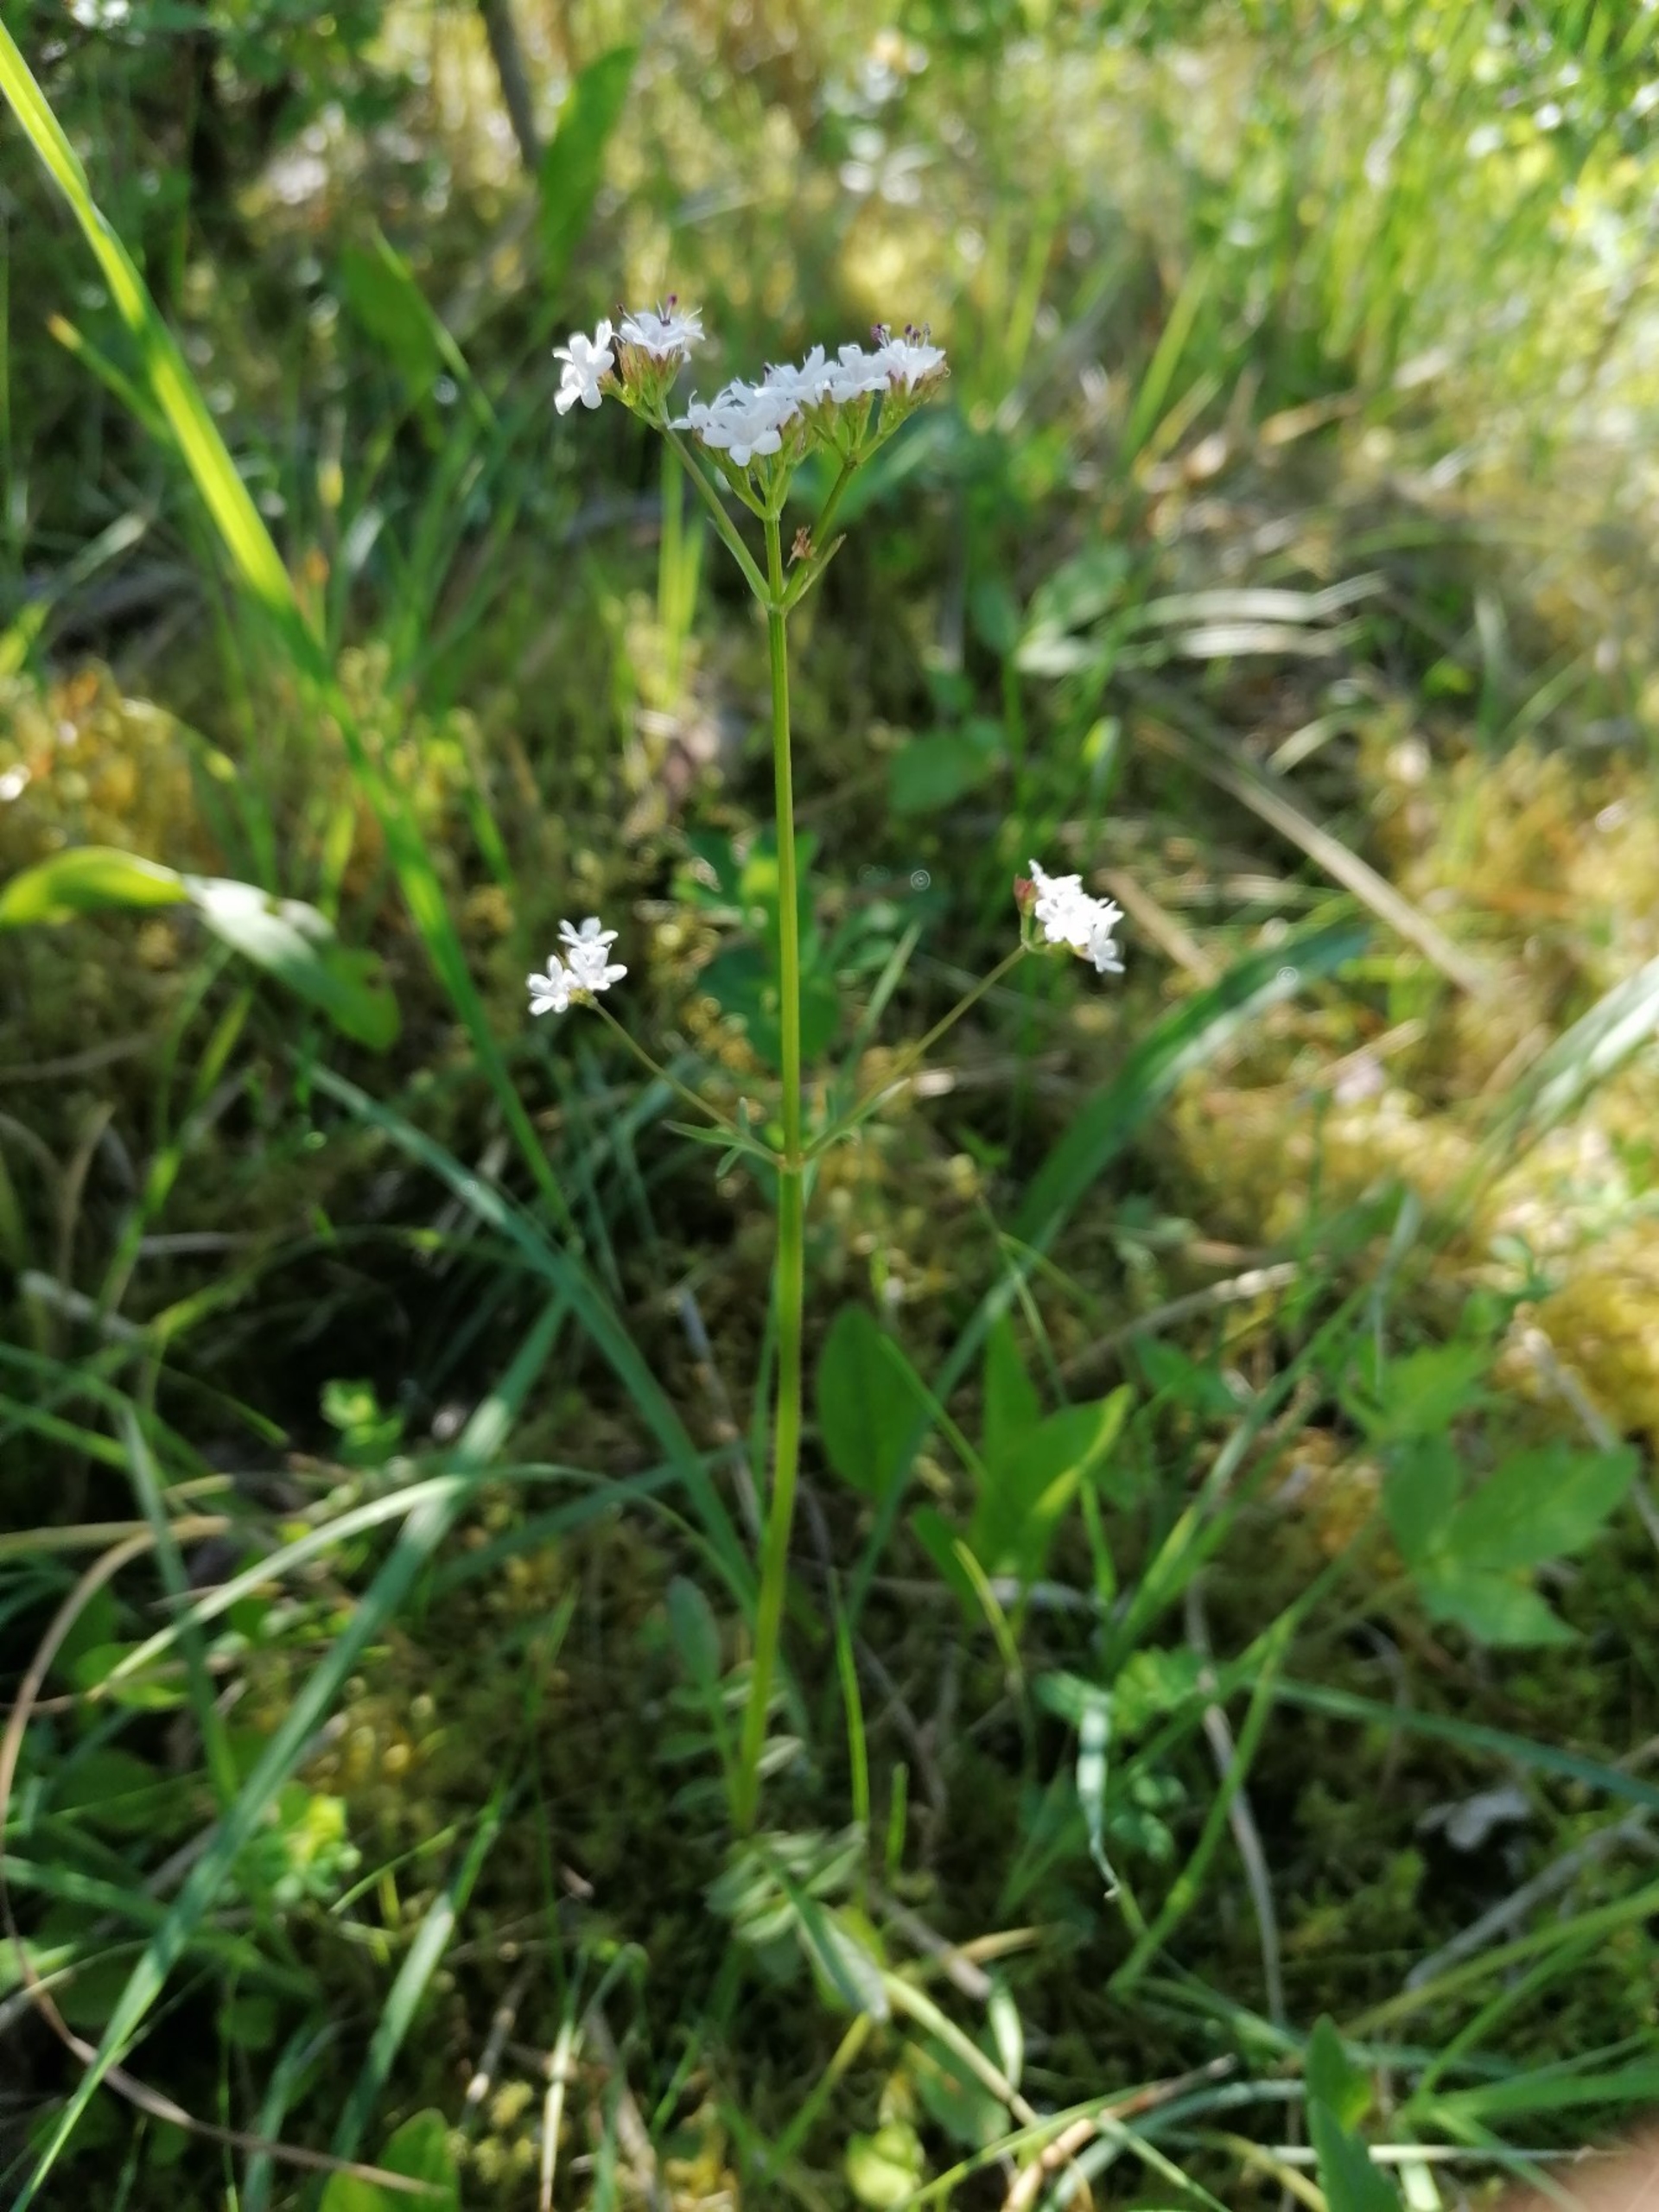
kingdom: Plantae
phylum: Tracheophyta
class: Magnoliopsida
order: Dipsacales
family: Caprifoliaceae
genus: Valeriana
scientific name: Valeriana dioica
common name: Tvebo baldrian
